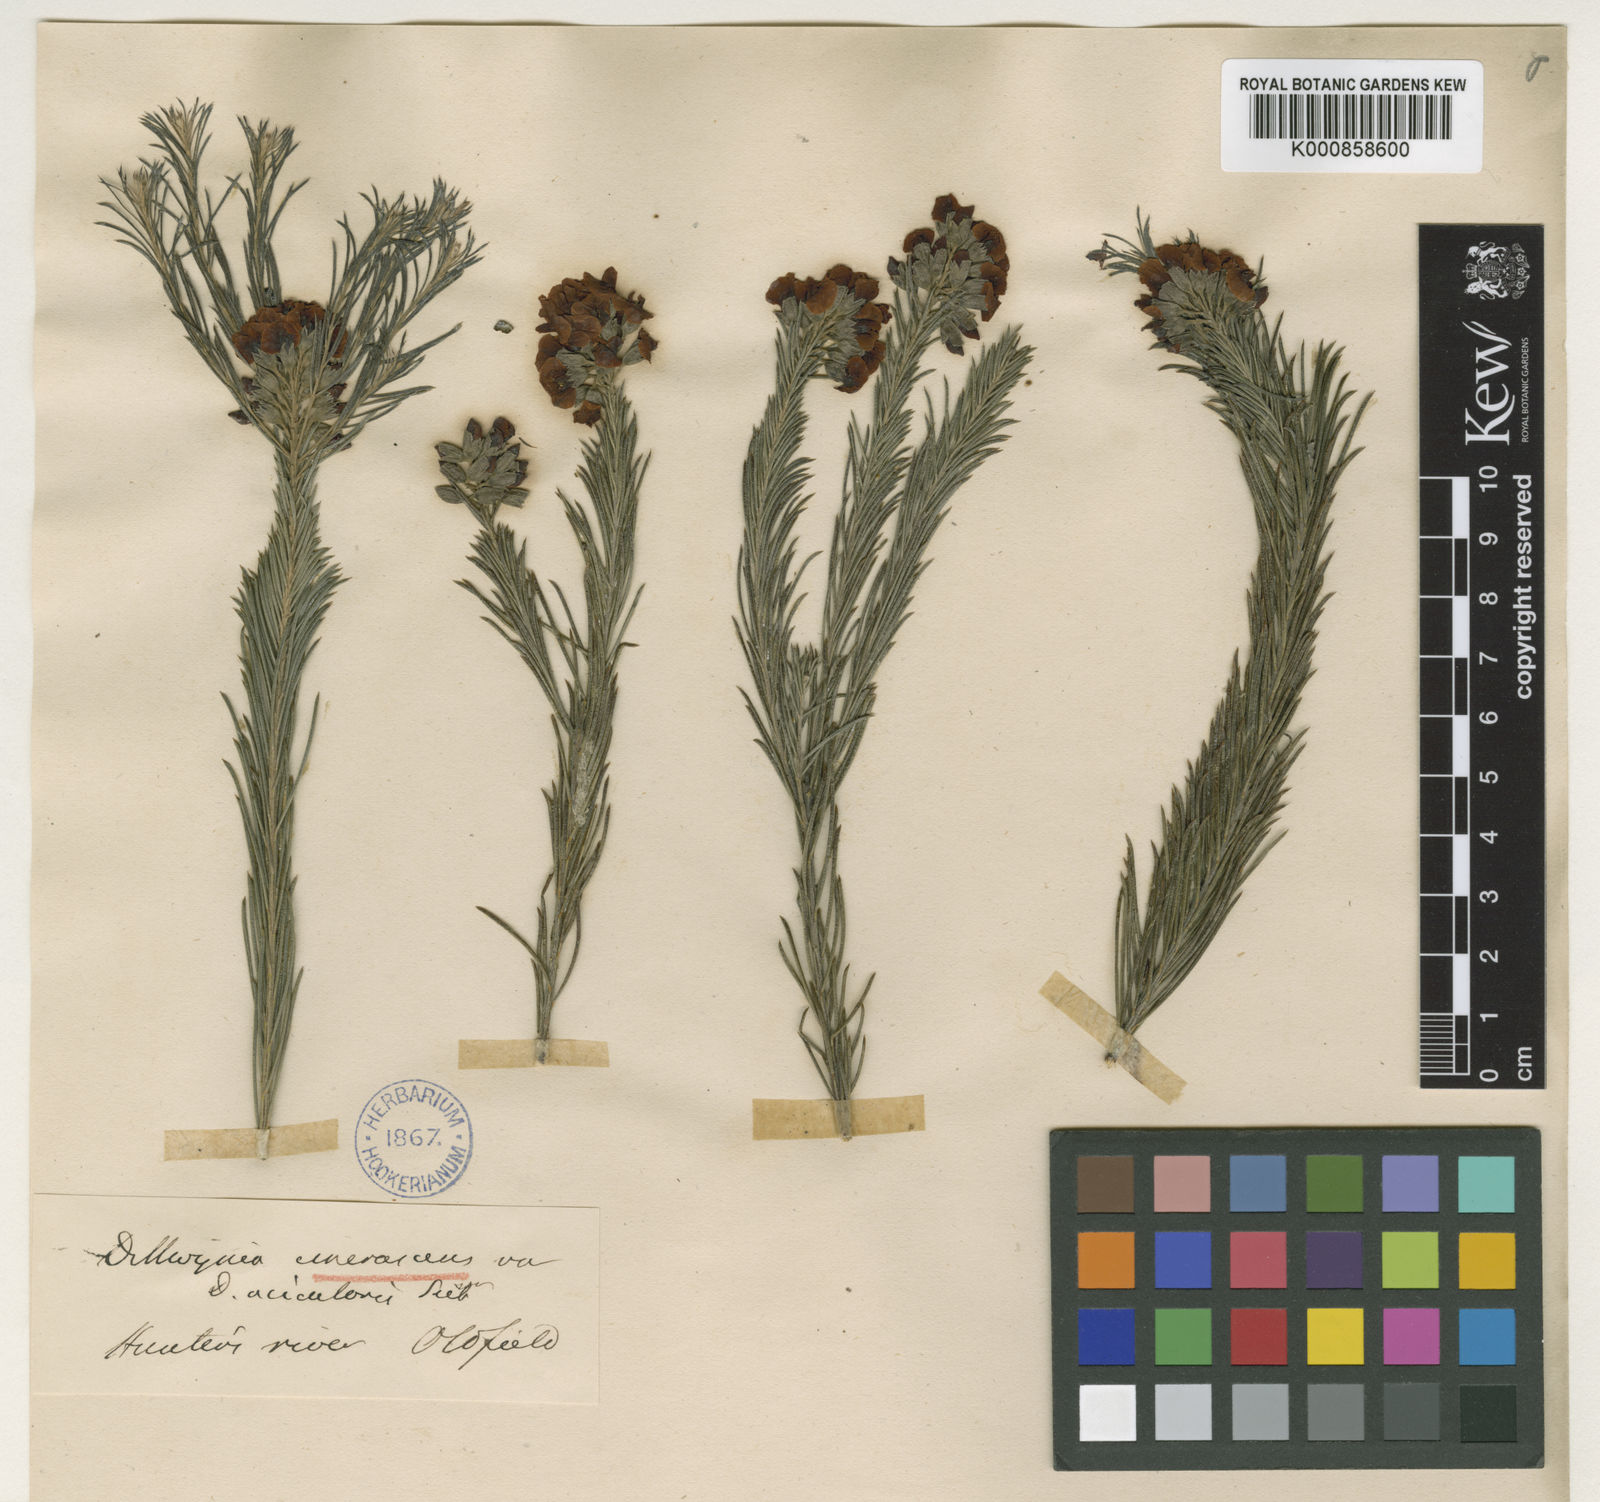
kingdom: Plantae
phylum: Tracheophyta
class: Magnoliopsida
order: Fabales
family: Fabaceae
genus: Dillwynia
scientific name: Dillwynia acicularis
